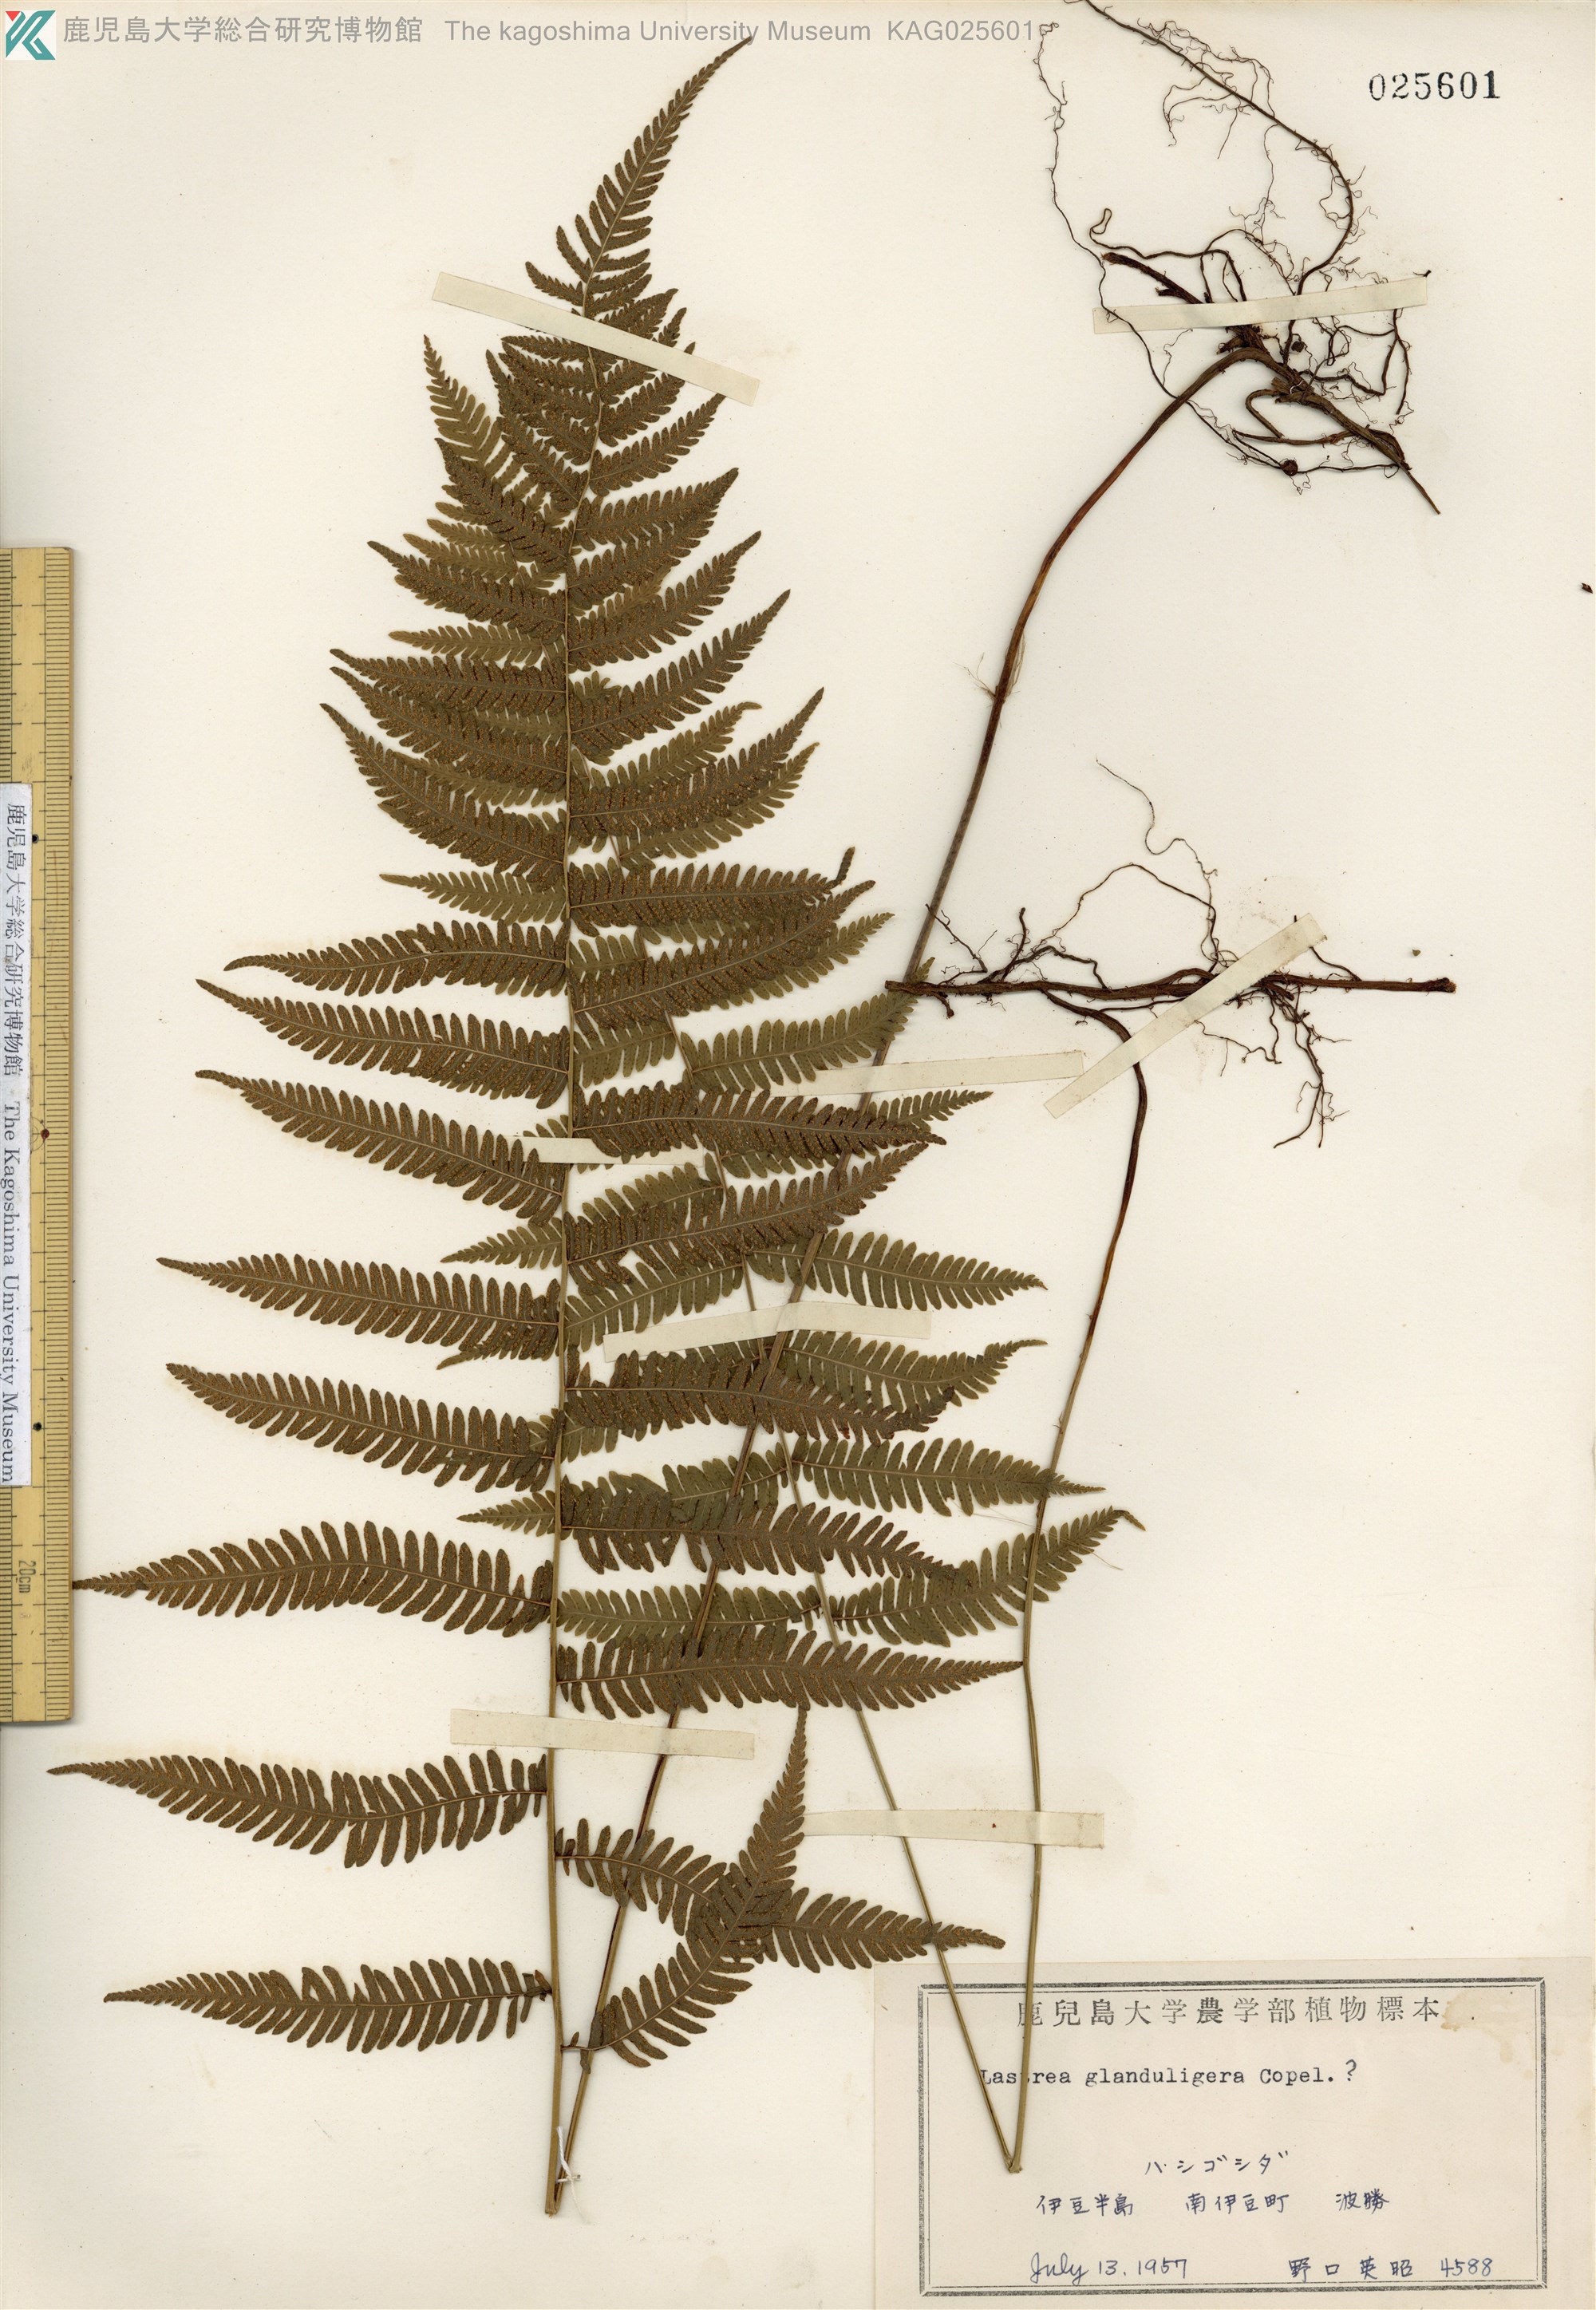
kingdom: Plantae
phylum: Tracheophyta
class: Polypodiopsida
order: Polypodiales
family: Thelypteridaceae
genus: Amauropelta
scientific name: Amauropelta glanduligera
